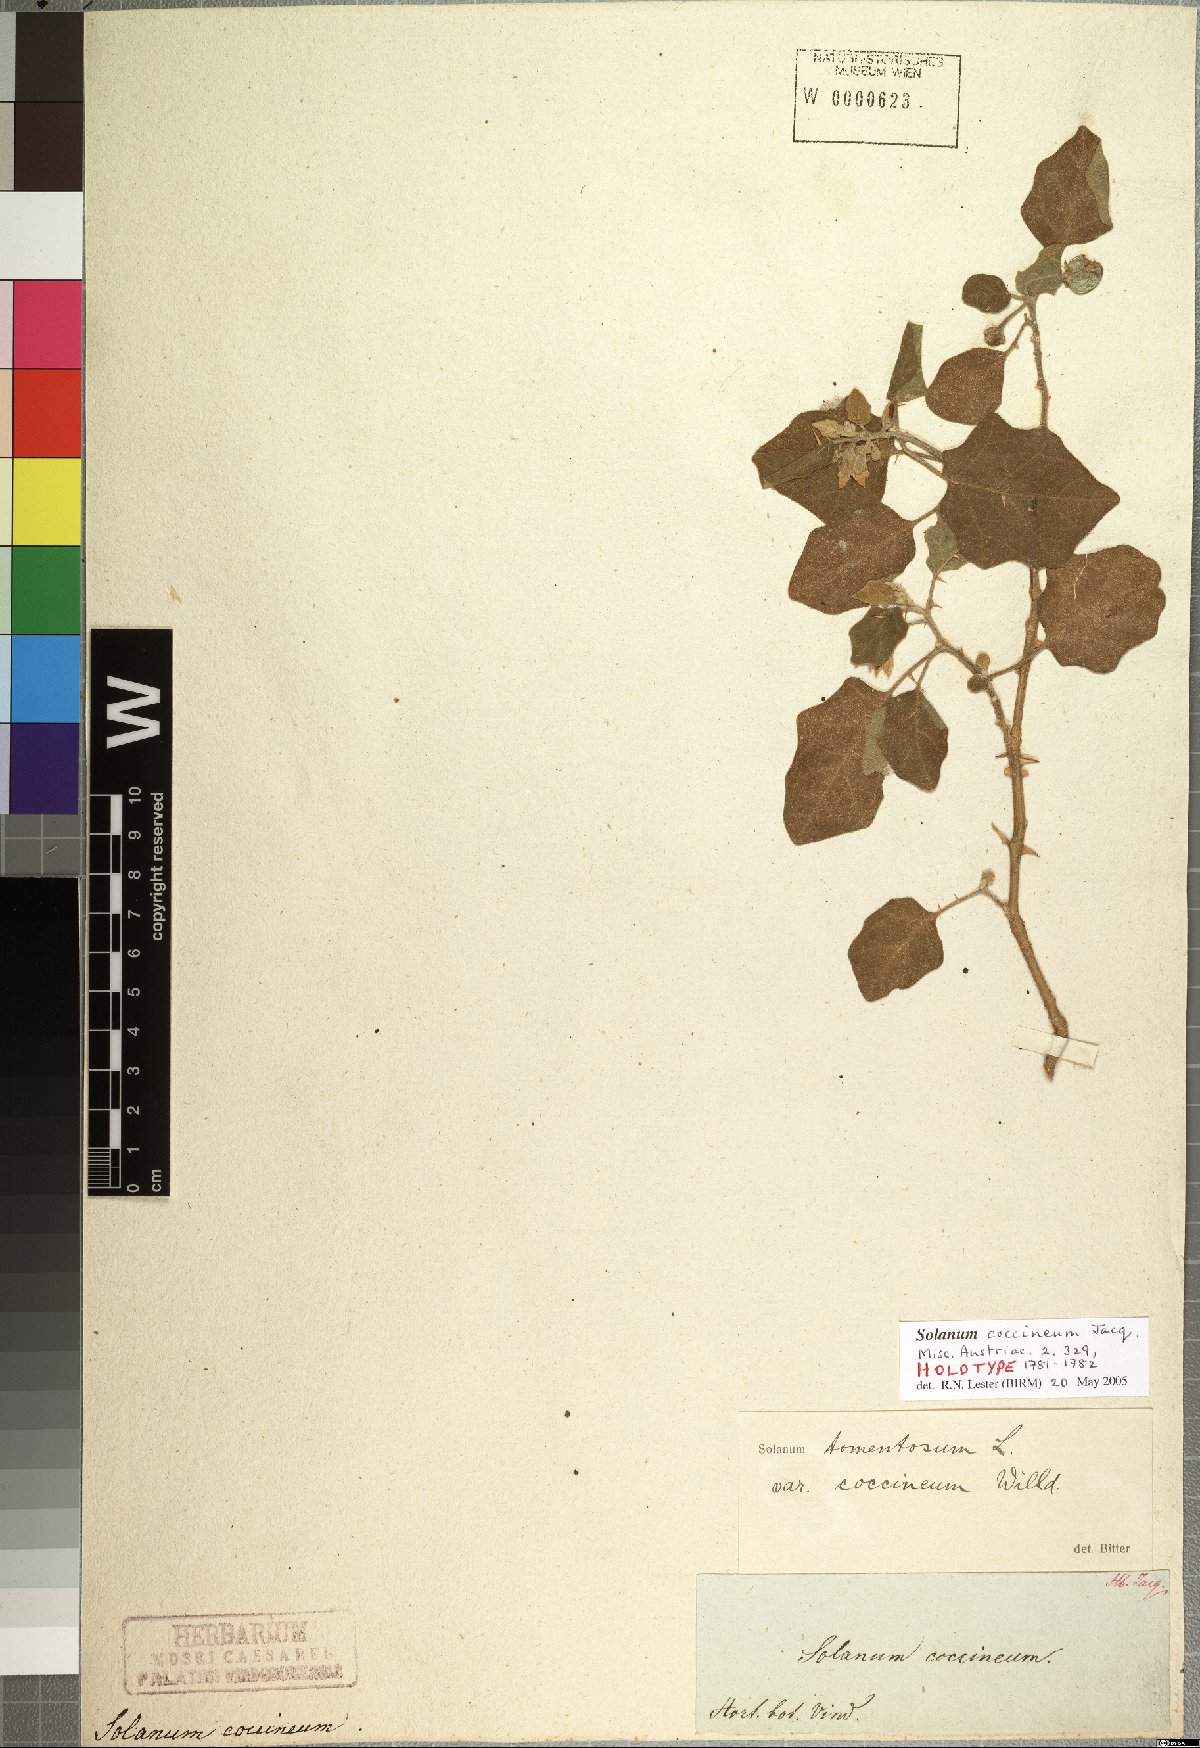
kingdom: Plantae
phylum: Tracheophyta
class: Magnoliopsida
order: Solanales
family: Solanaceae
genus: Solanum
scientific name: Solanum tomentosum
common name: Wild aubergine
